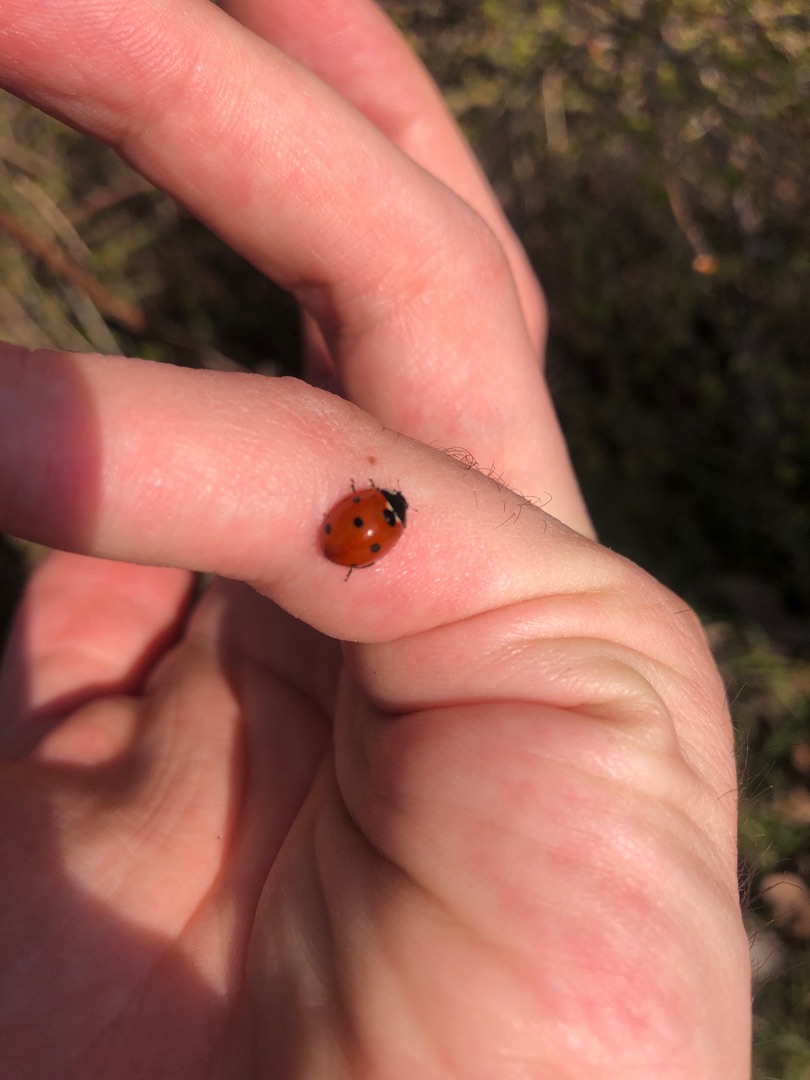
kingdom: Animalia
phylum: Arthropoda
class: Insecta
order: Coleoptera
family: Coccinellidae
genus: Coccinella
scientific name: Coccinella septempunctata
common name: Syvplettet mariehøne
